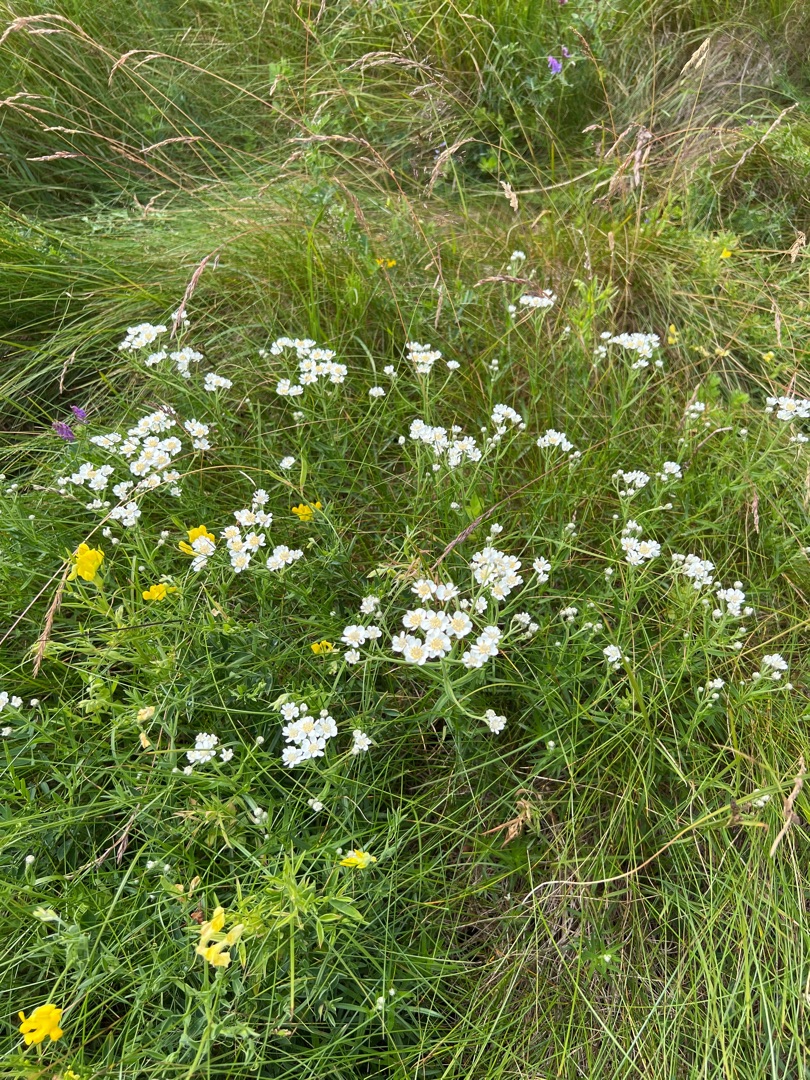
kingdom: Plantae
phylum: Tracheophyta
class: Magnoliopsida
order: Asterales
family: Asteraceae
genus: Achillea
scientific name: Achillea ptarmica
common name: Nyse-røllike
